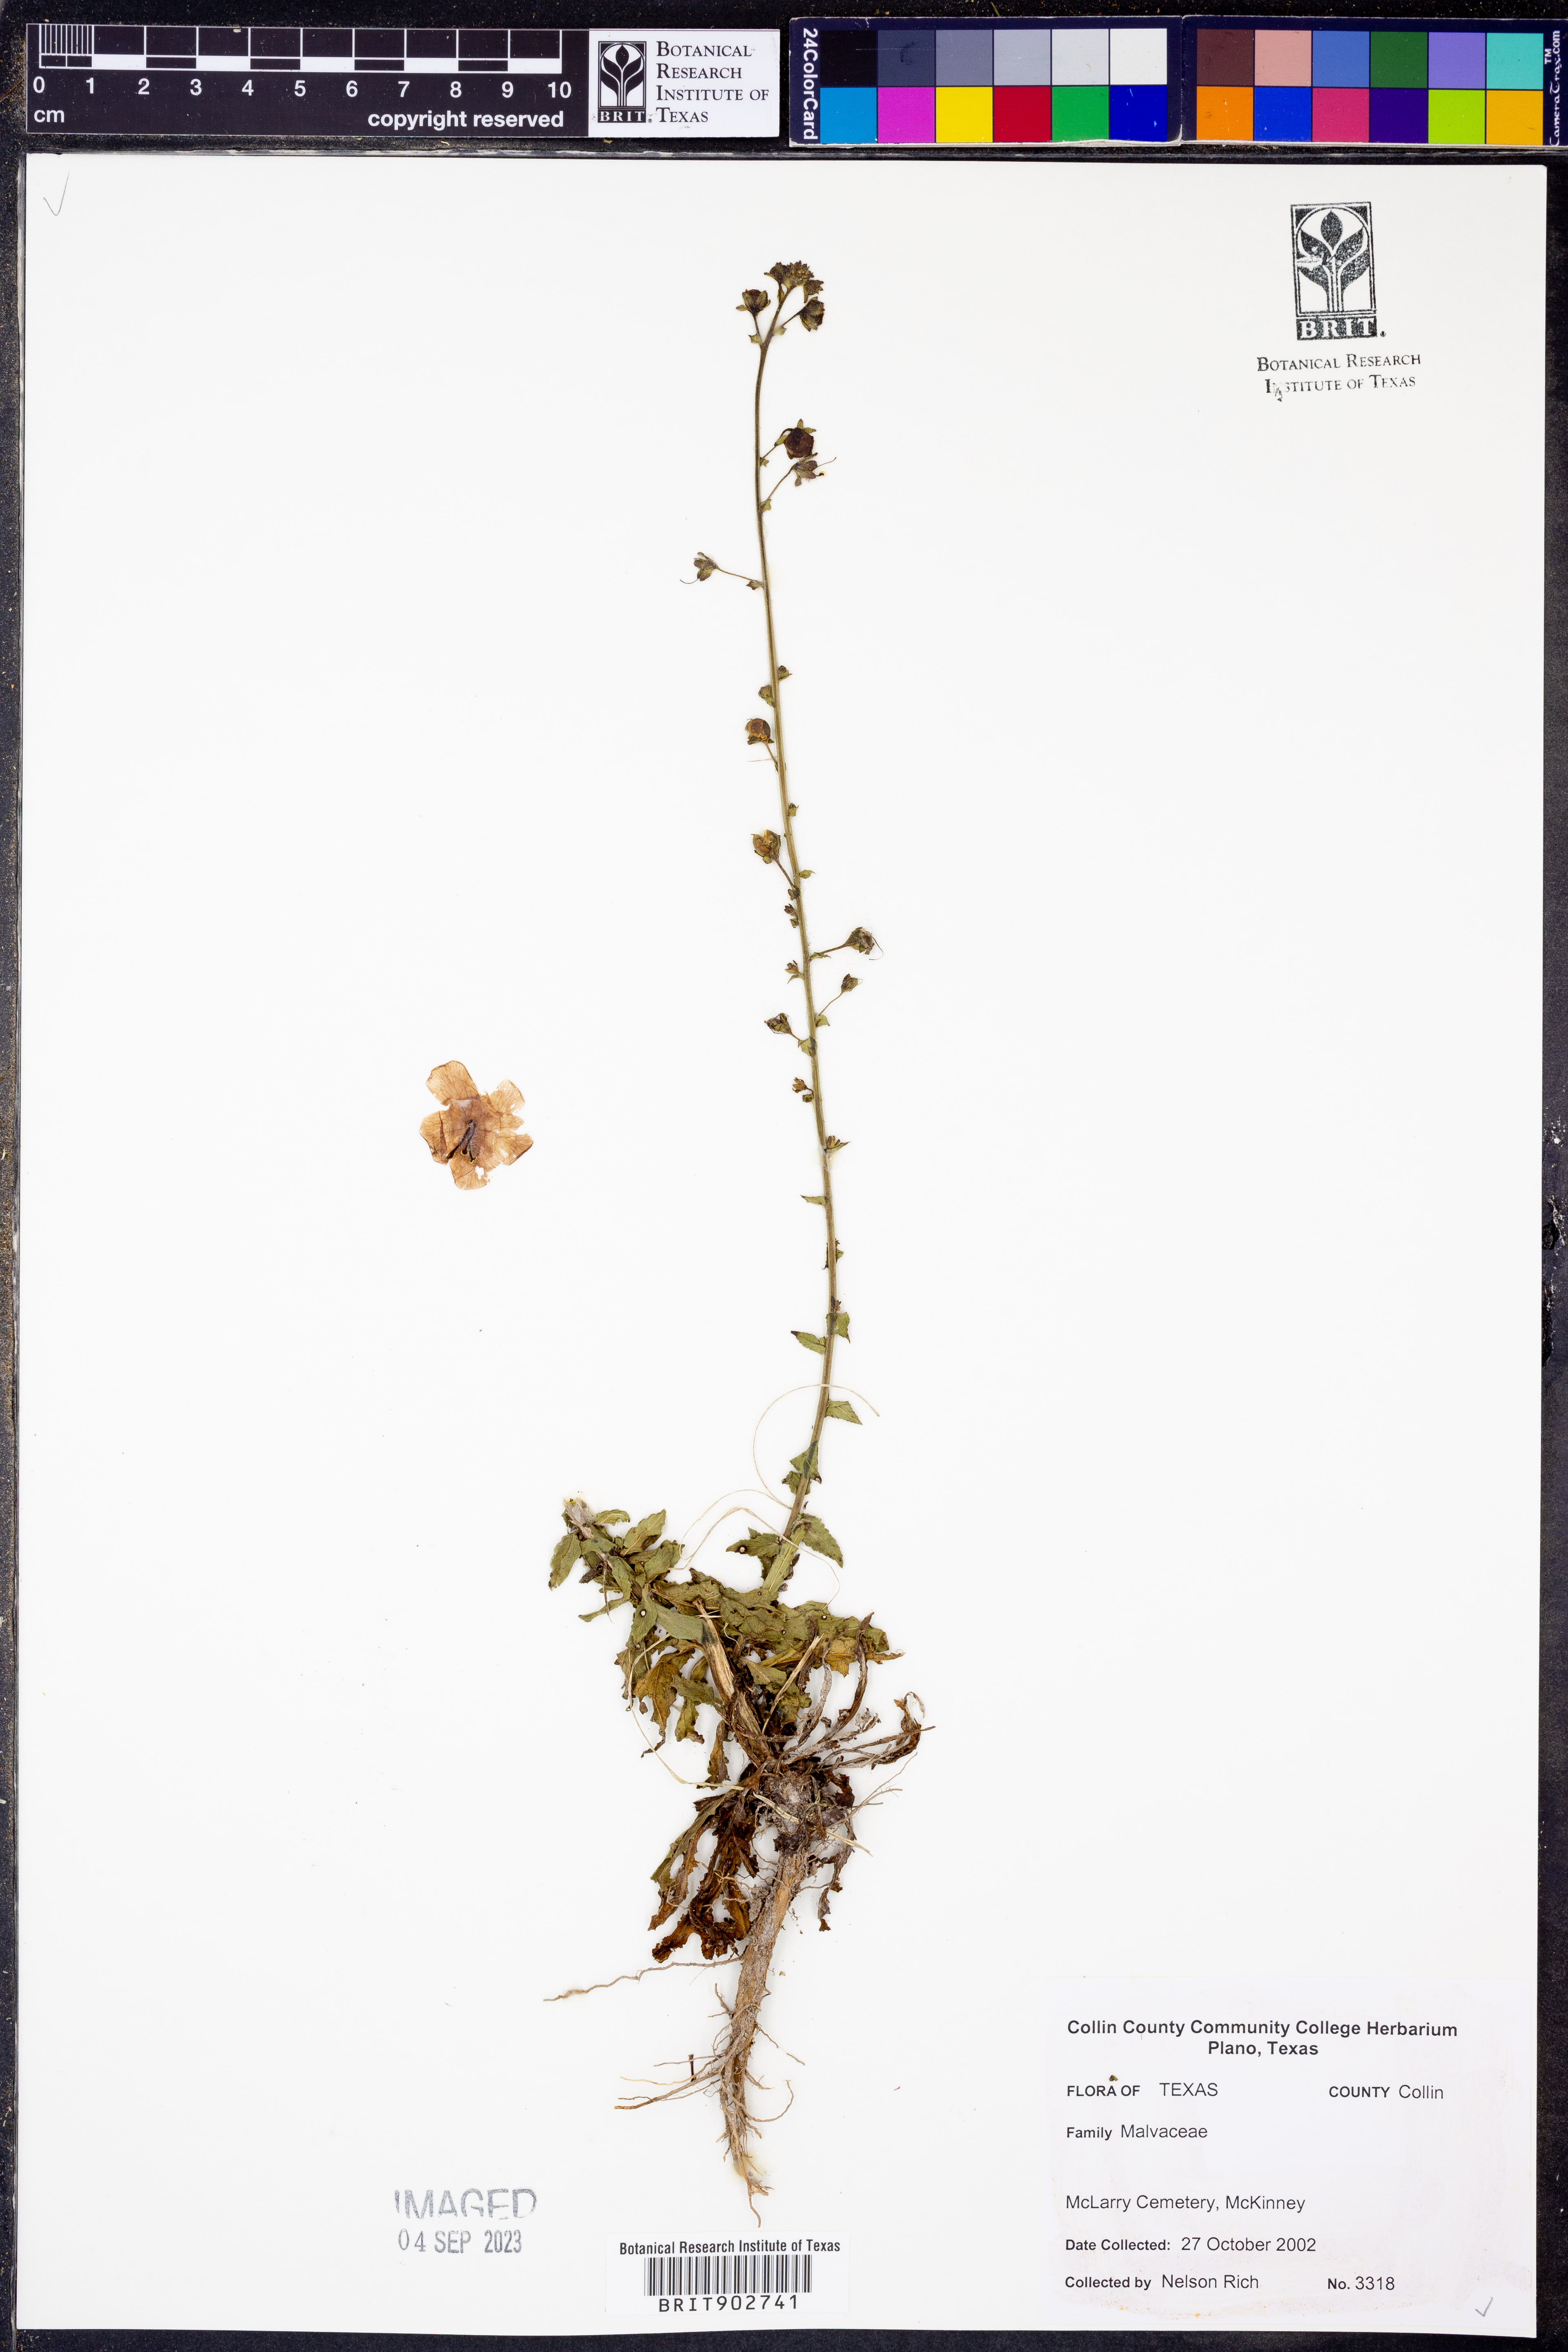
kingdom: Plantae
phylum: Tracheophyta
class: Magnoliopsida
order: Malvales
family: Malvaceae
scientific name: Malvaceae
